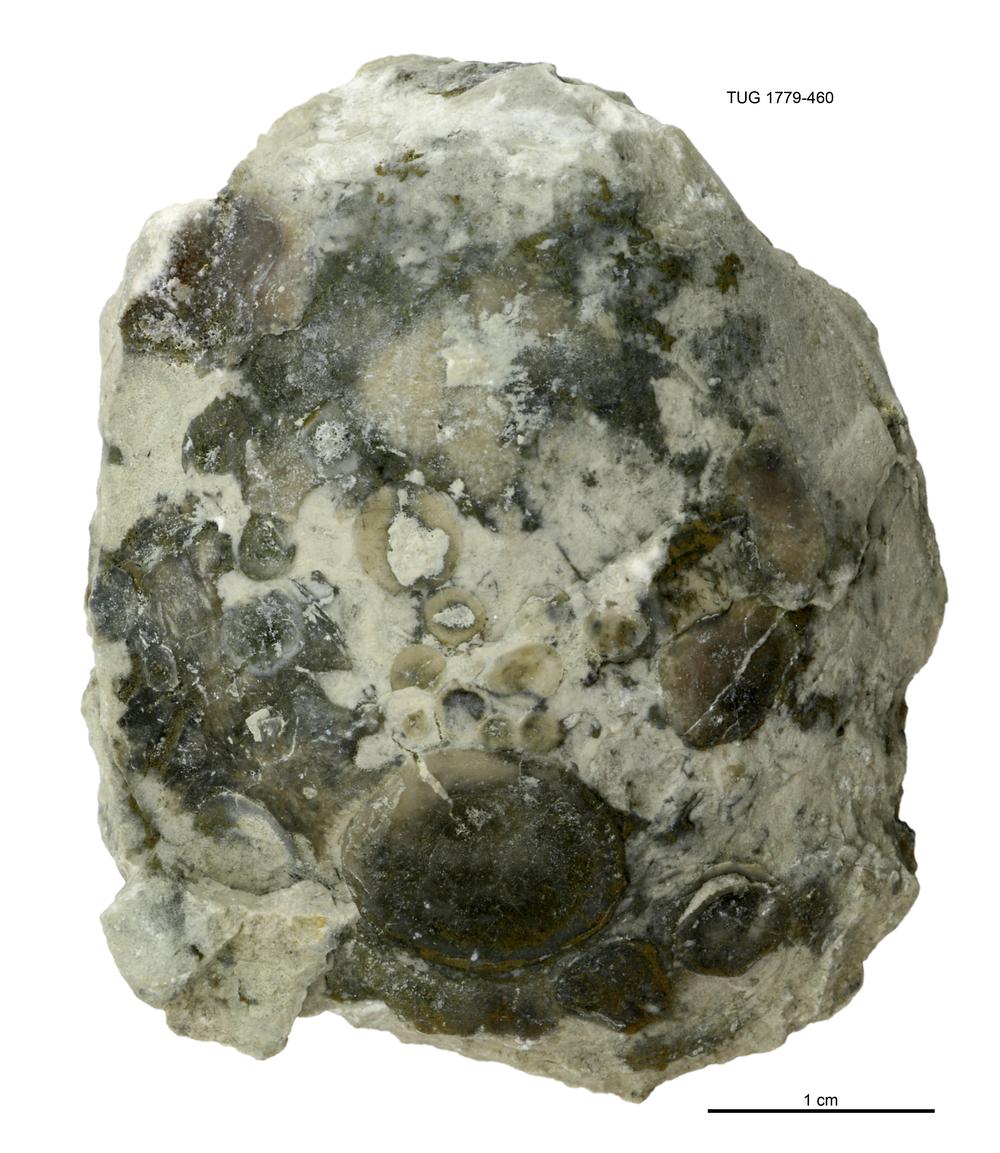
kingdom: Animalia
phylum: Mollusca
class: Bivalvia
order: Modiomorphida
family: Modiomorphidae
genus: Modiolopsis
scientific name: Modiolopsis
